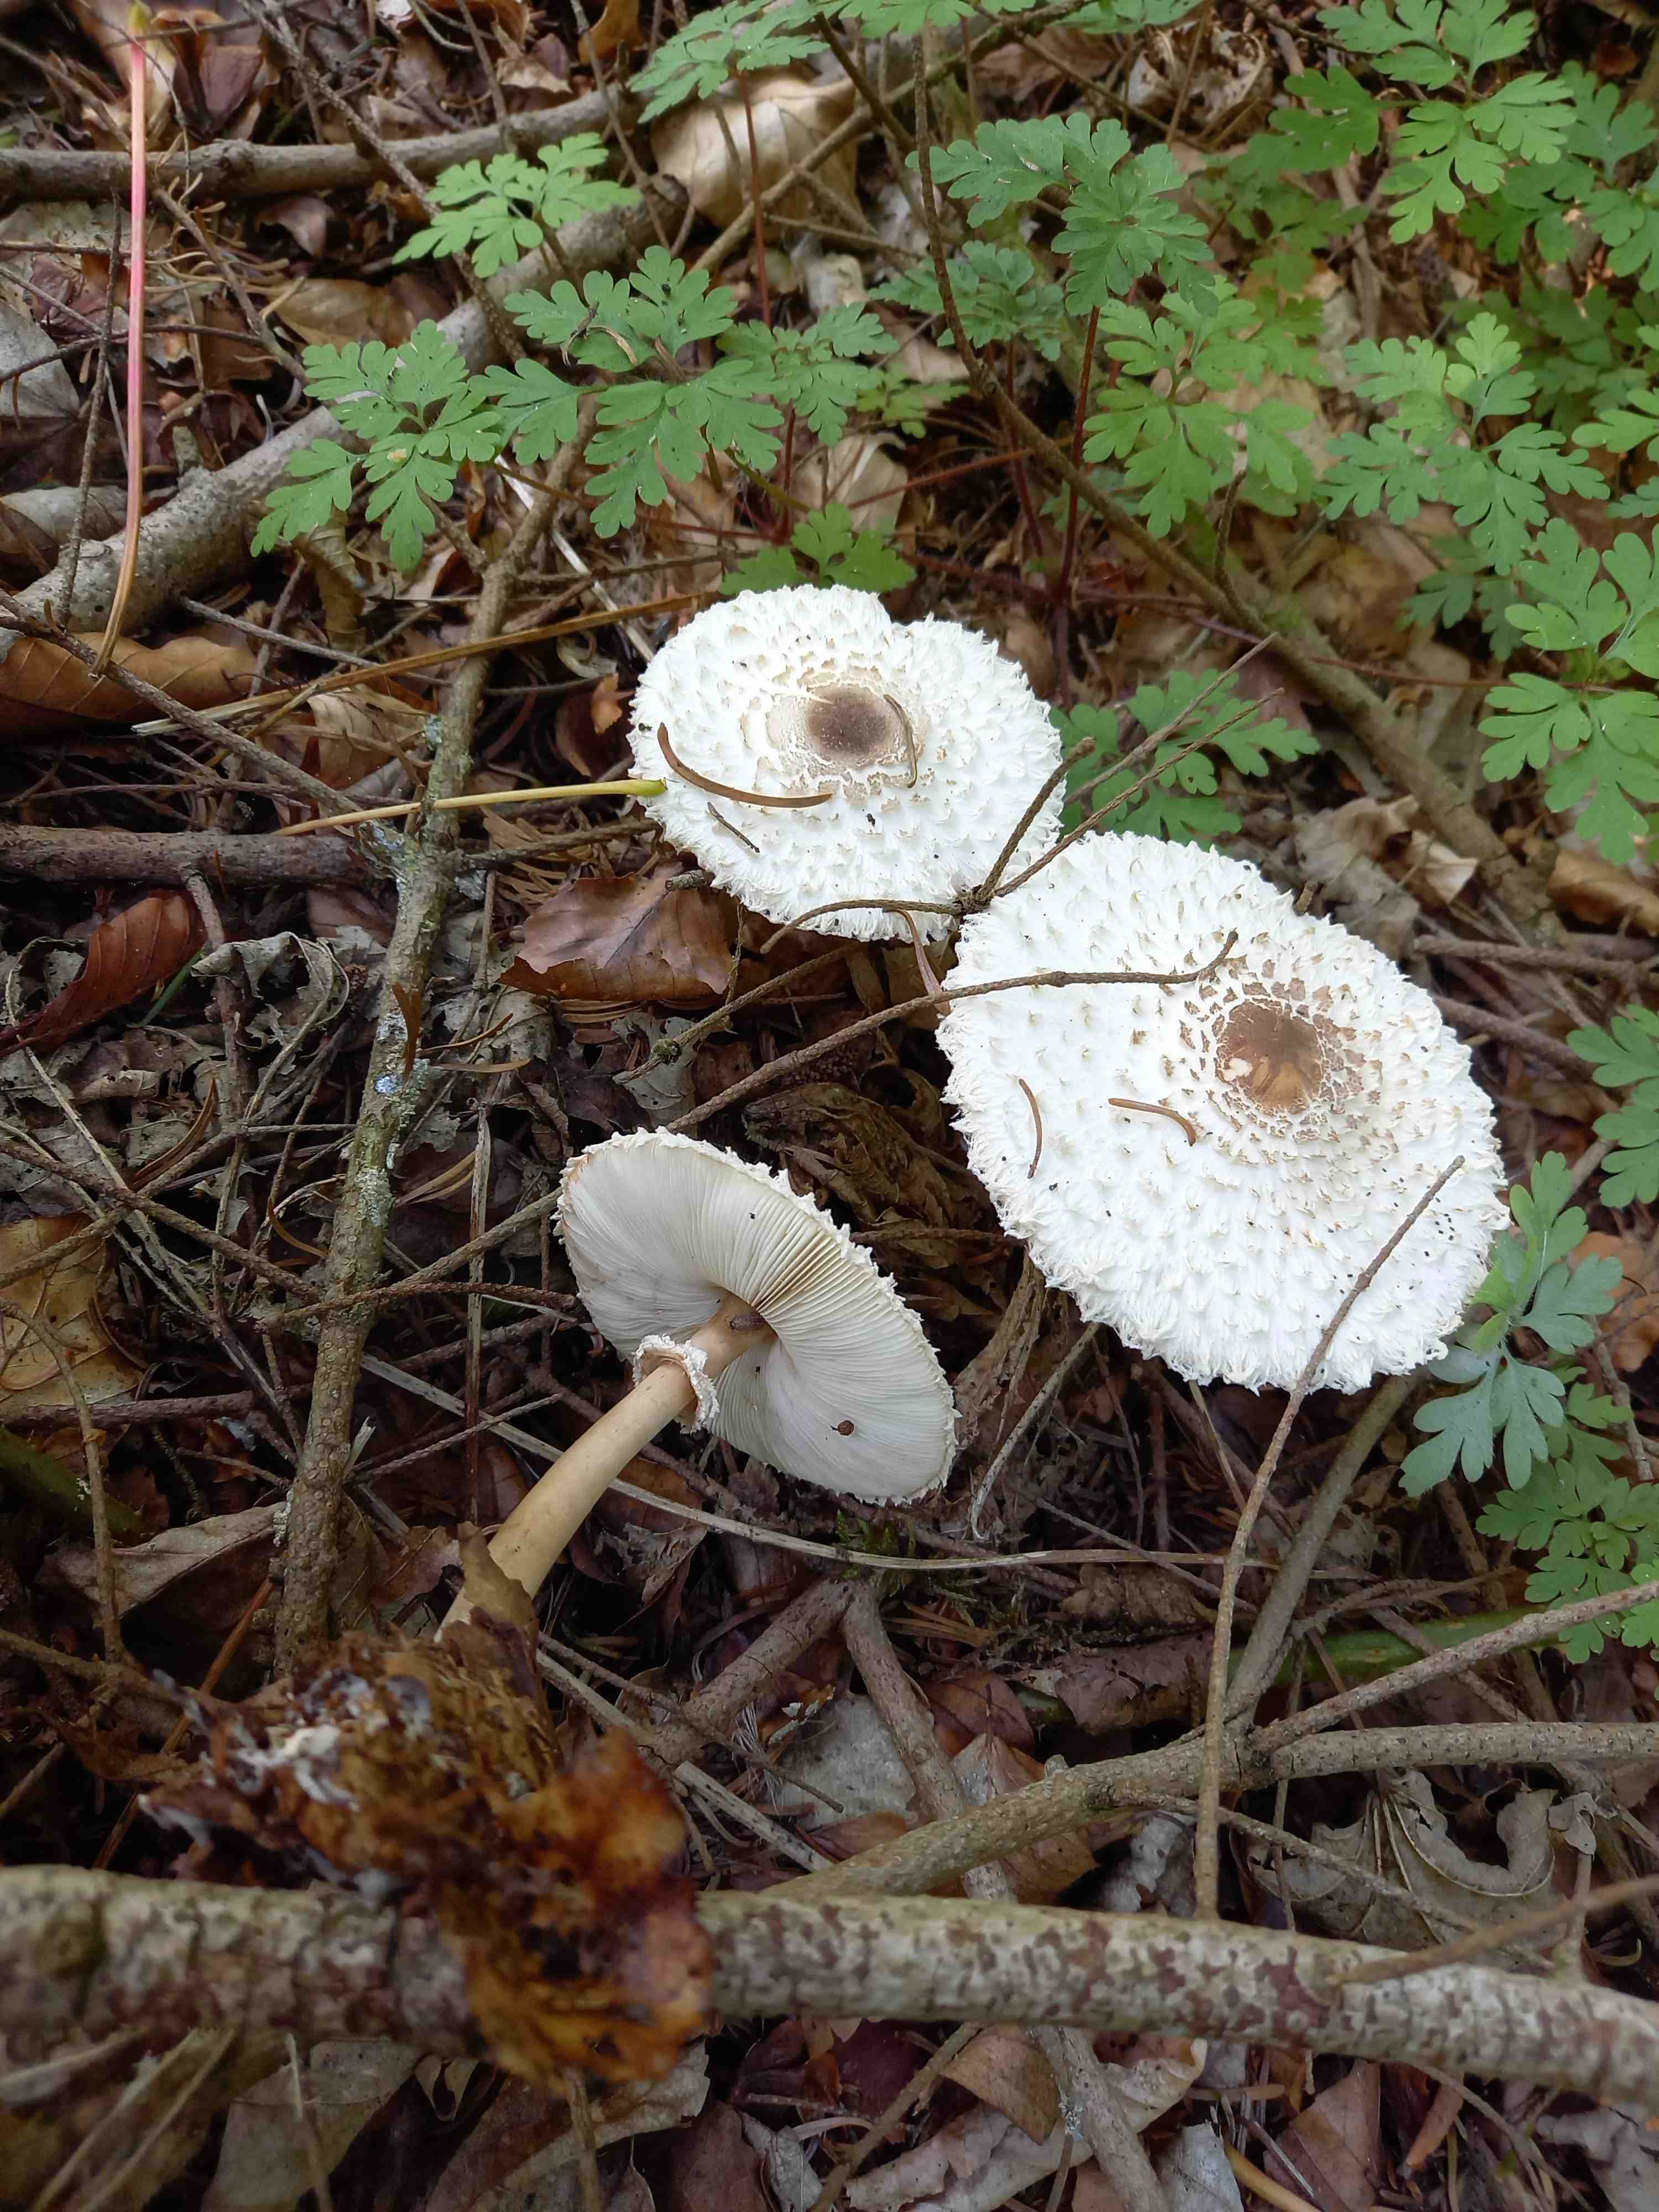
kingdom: Fungi
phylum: Basidiomycota
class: Agaricomycetes
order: Agaricales
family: Agaricaceae
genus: Leucoagaricus
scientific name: Leucoagaricus nympharum
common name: gran-silkehat
